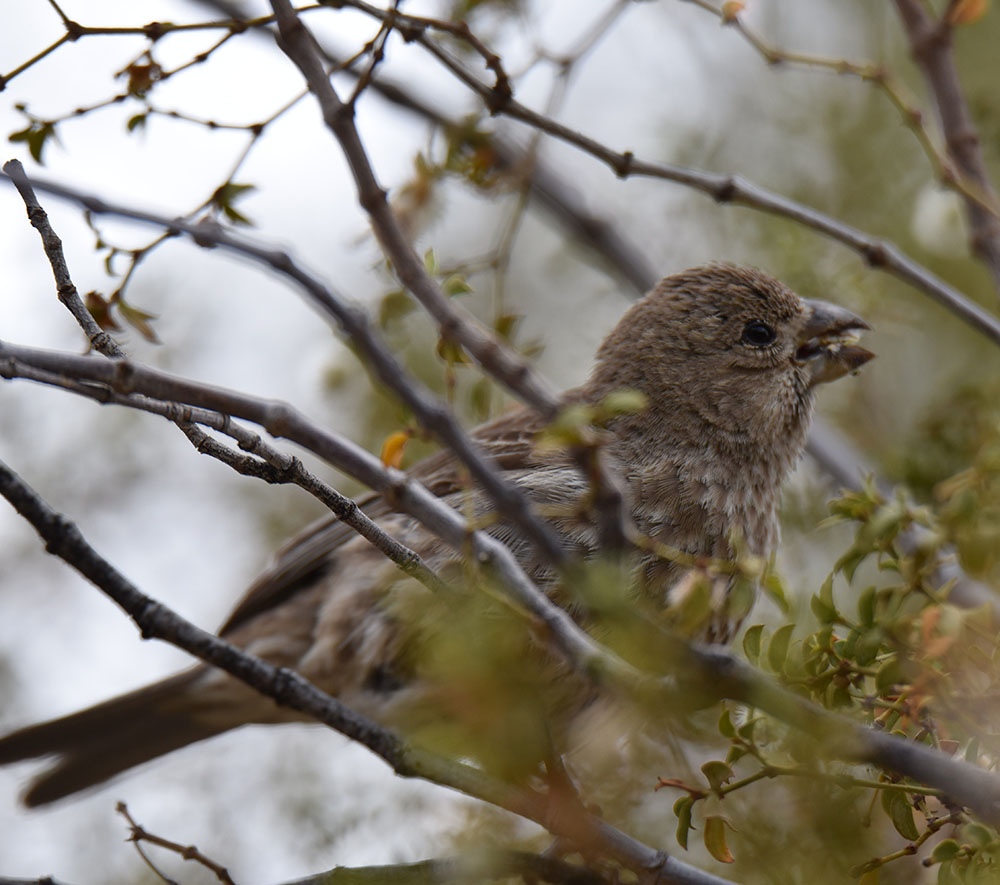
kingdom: Animalia
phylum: Chordata
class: Aves
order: Passeriformes
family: Fringillidae
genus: Haemorhous
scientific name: Haemorhous mexicanus
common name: House finch
